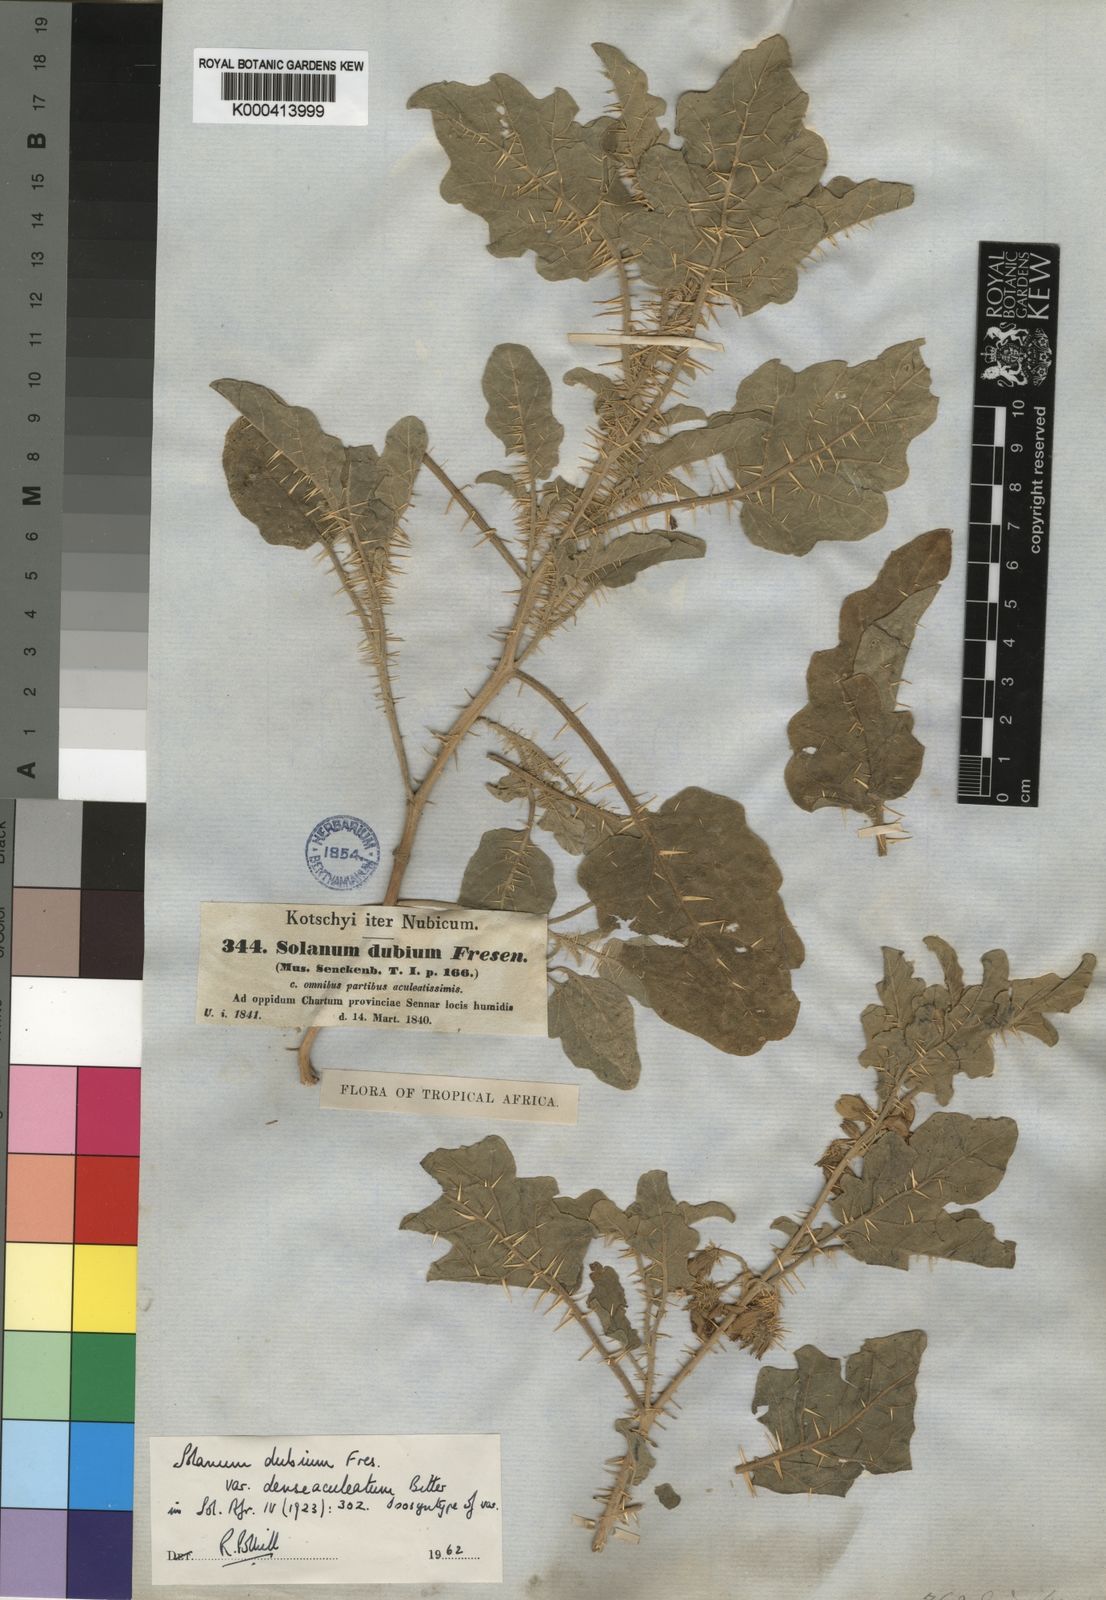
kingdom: Plantae
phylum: Tracheophyta
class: Magnoliopsida
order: Solanales
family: Solanaceae
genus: Solanum
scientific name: Solanum coagulans
